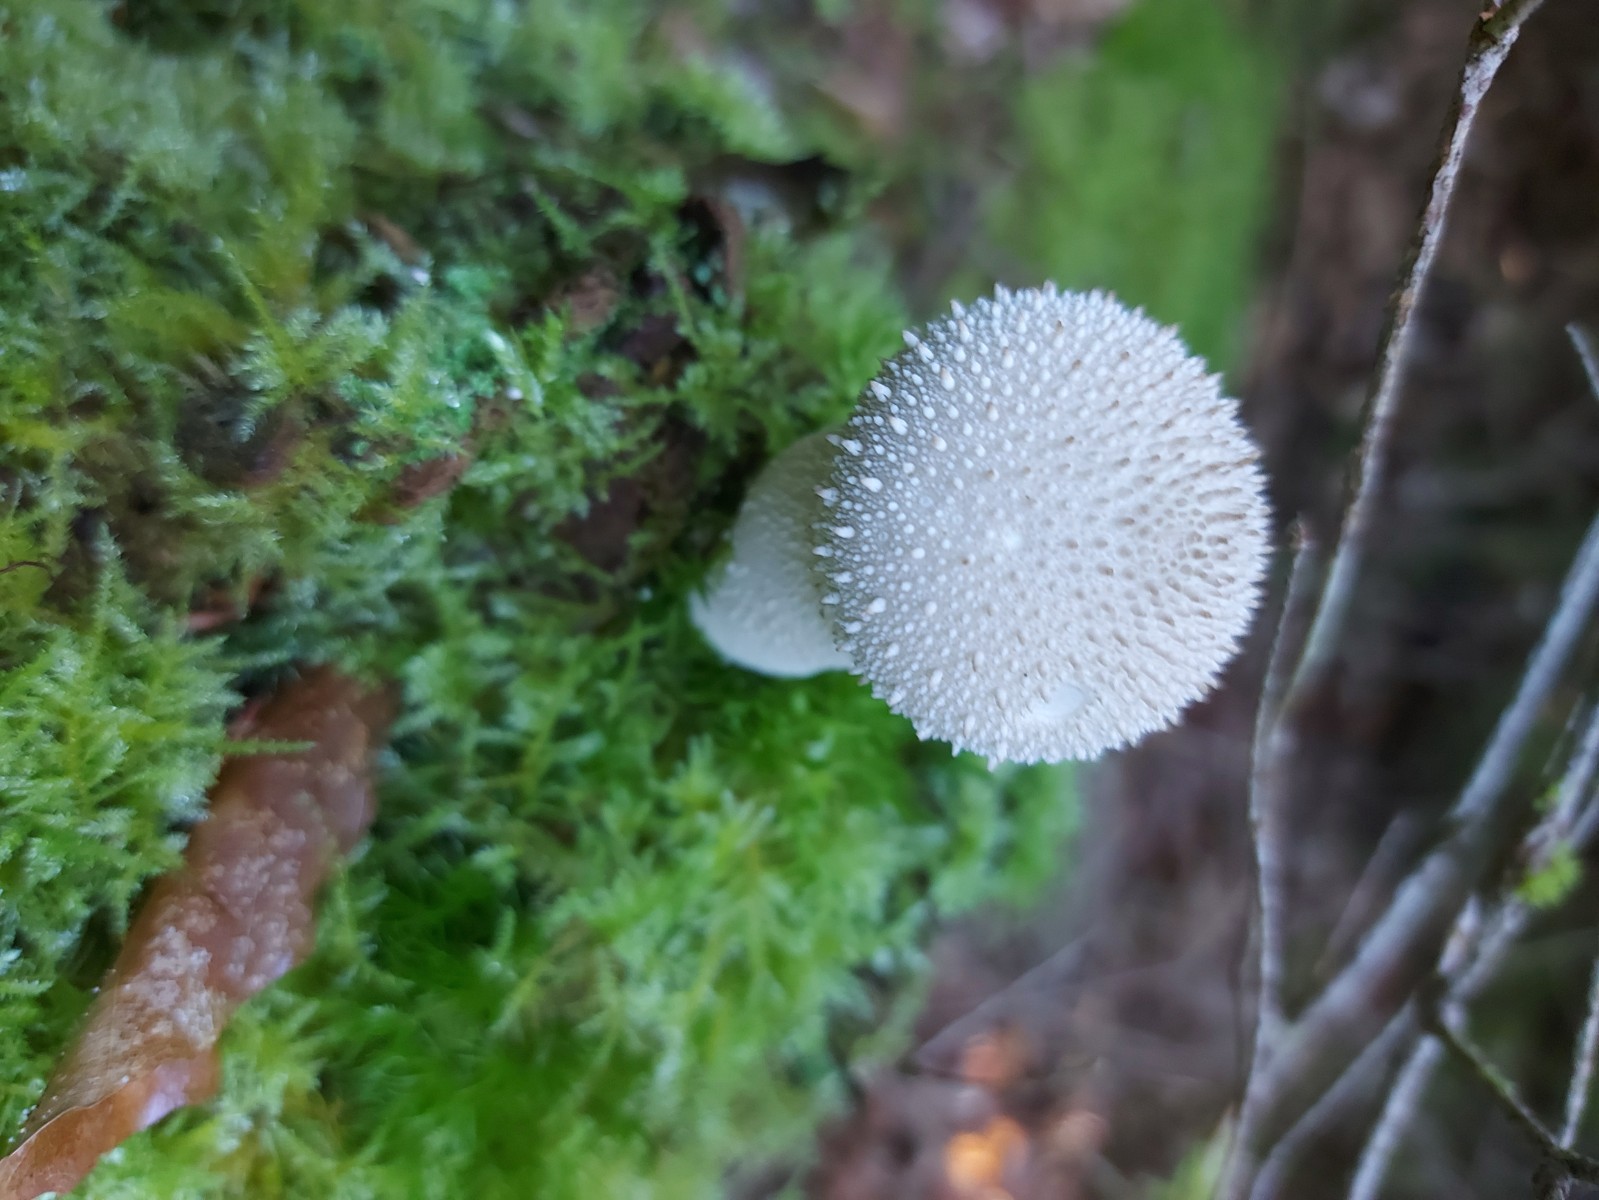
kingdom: Fungi
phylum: Basidiomycota
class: Agaricomycetes
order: Agaricales
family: Lycoperdaceae
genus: Lycoperdon
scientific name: Lycoperdon perlatum
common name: krystal-støvbold
